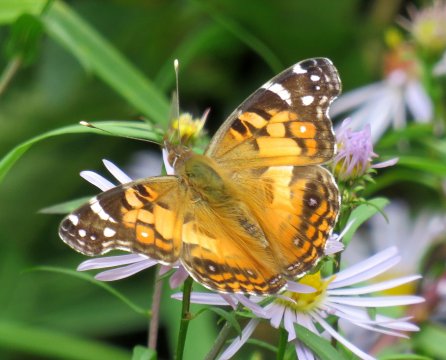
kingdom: Animalia
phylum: Arthropoda
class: Insecta
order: Lepidoptera
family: Nymphalidae
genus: Vanessa
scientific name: Vanessa virginiensis
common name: American Lady
